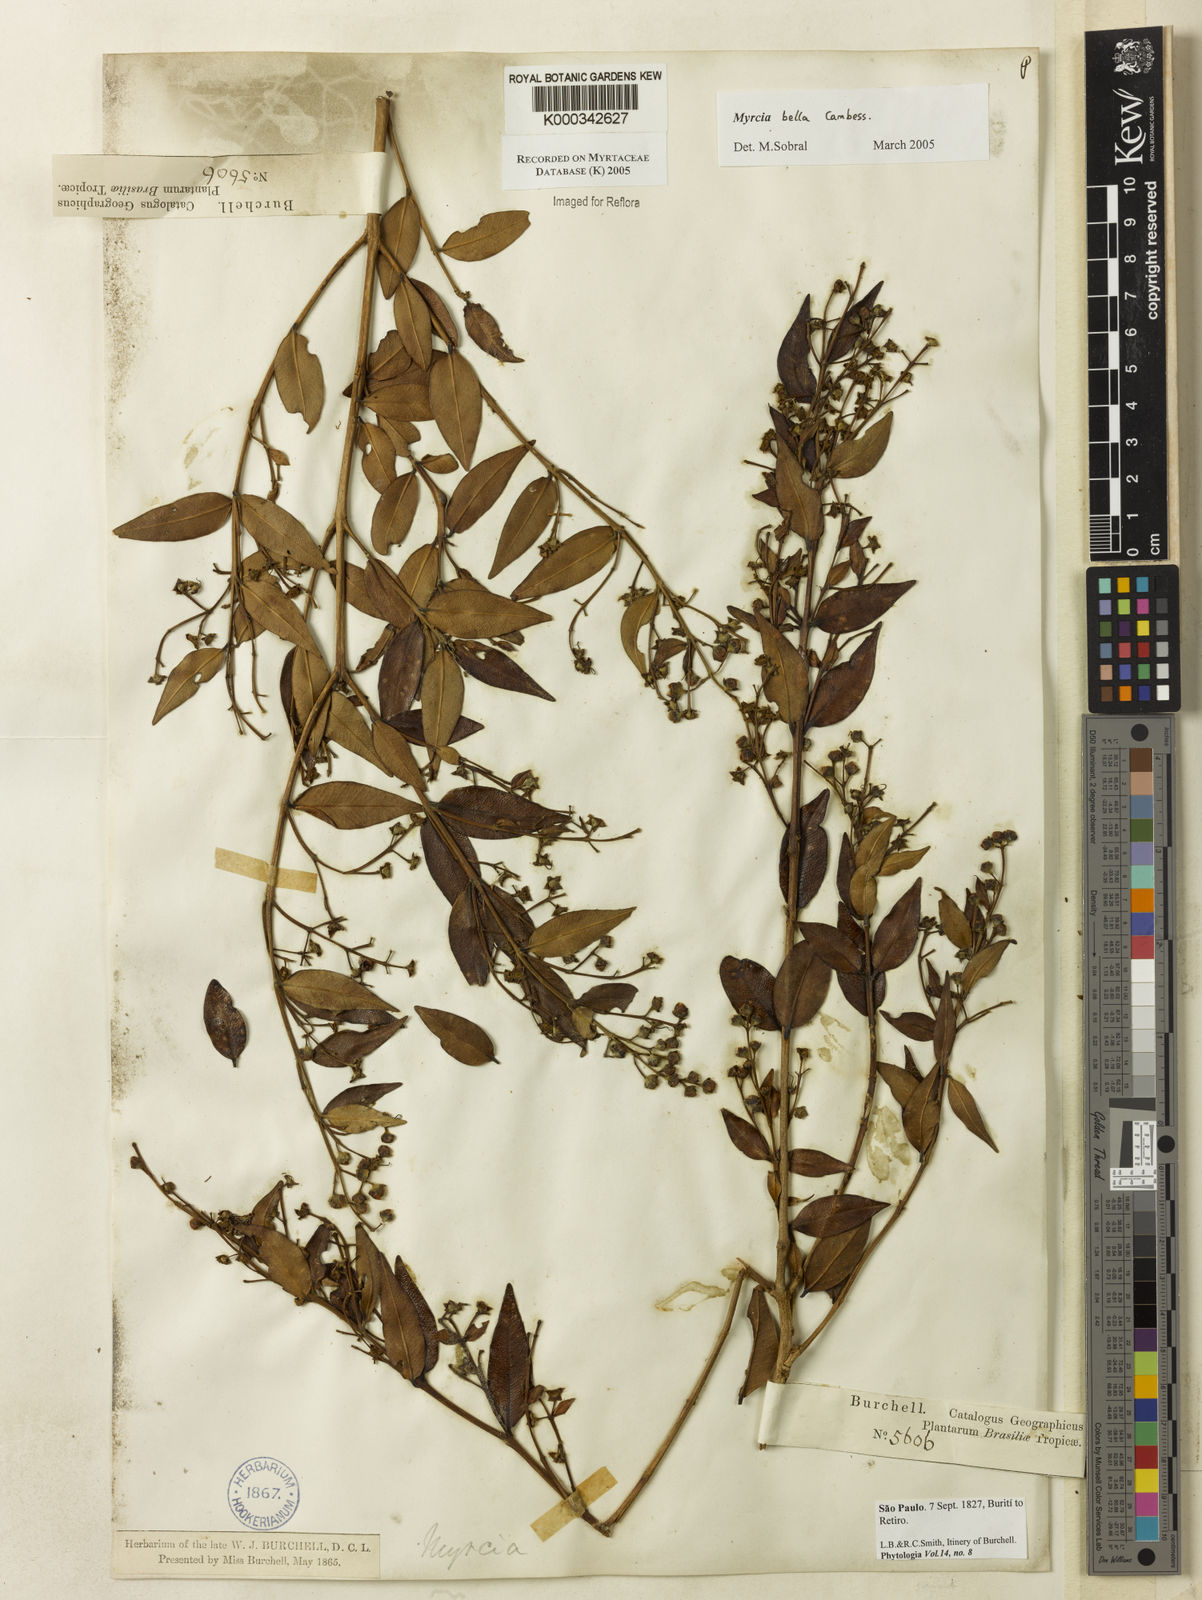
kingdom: Plantae
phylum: Tracheophyta
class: Magnoliopsida
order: Myrtales
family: Myrtaceae
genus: Myrcia
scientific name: Myrcia bella
